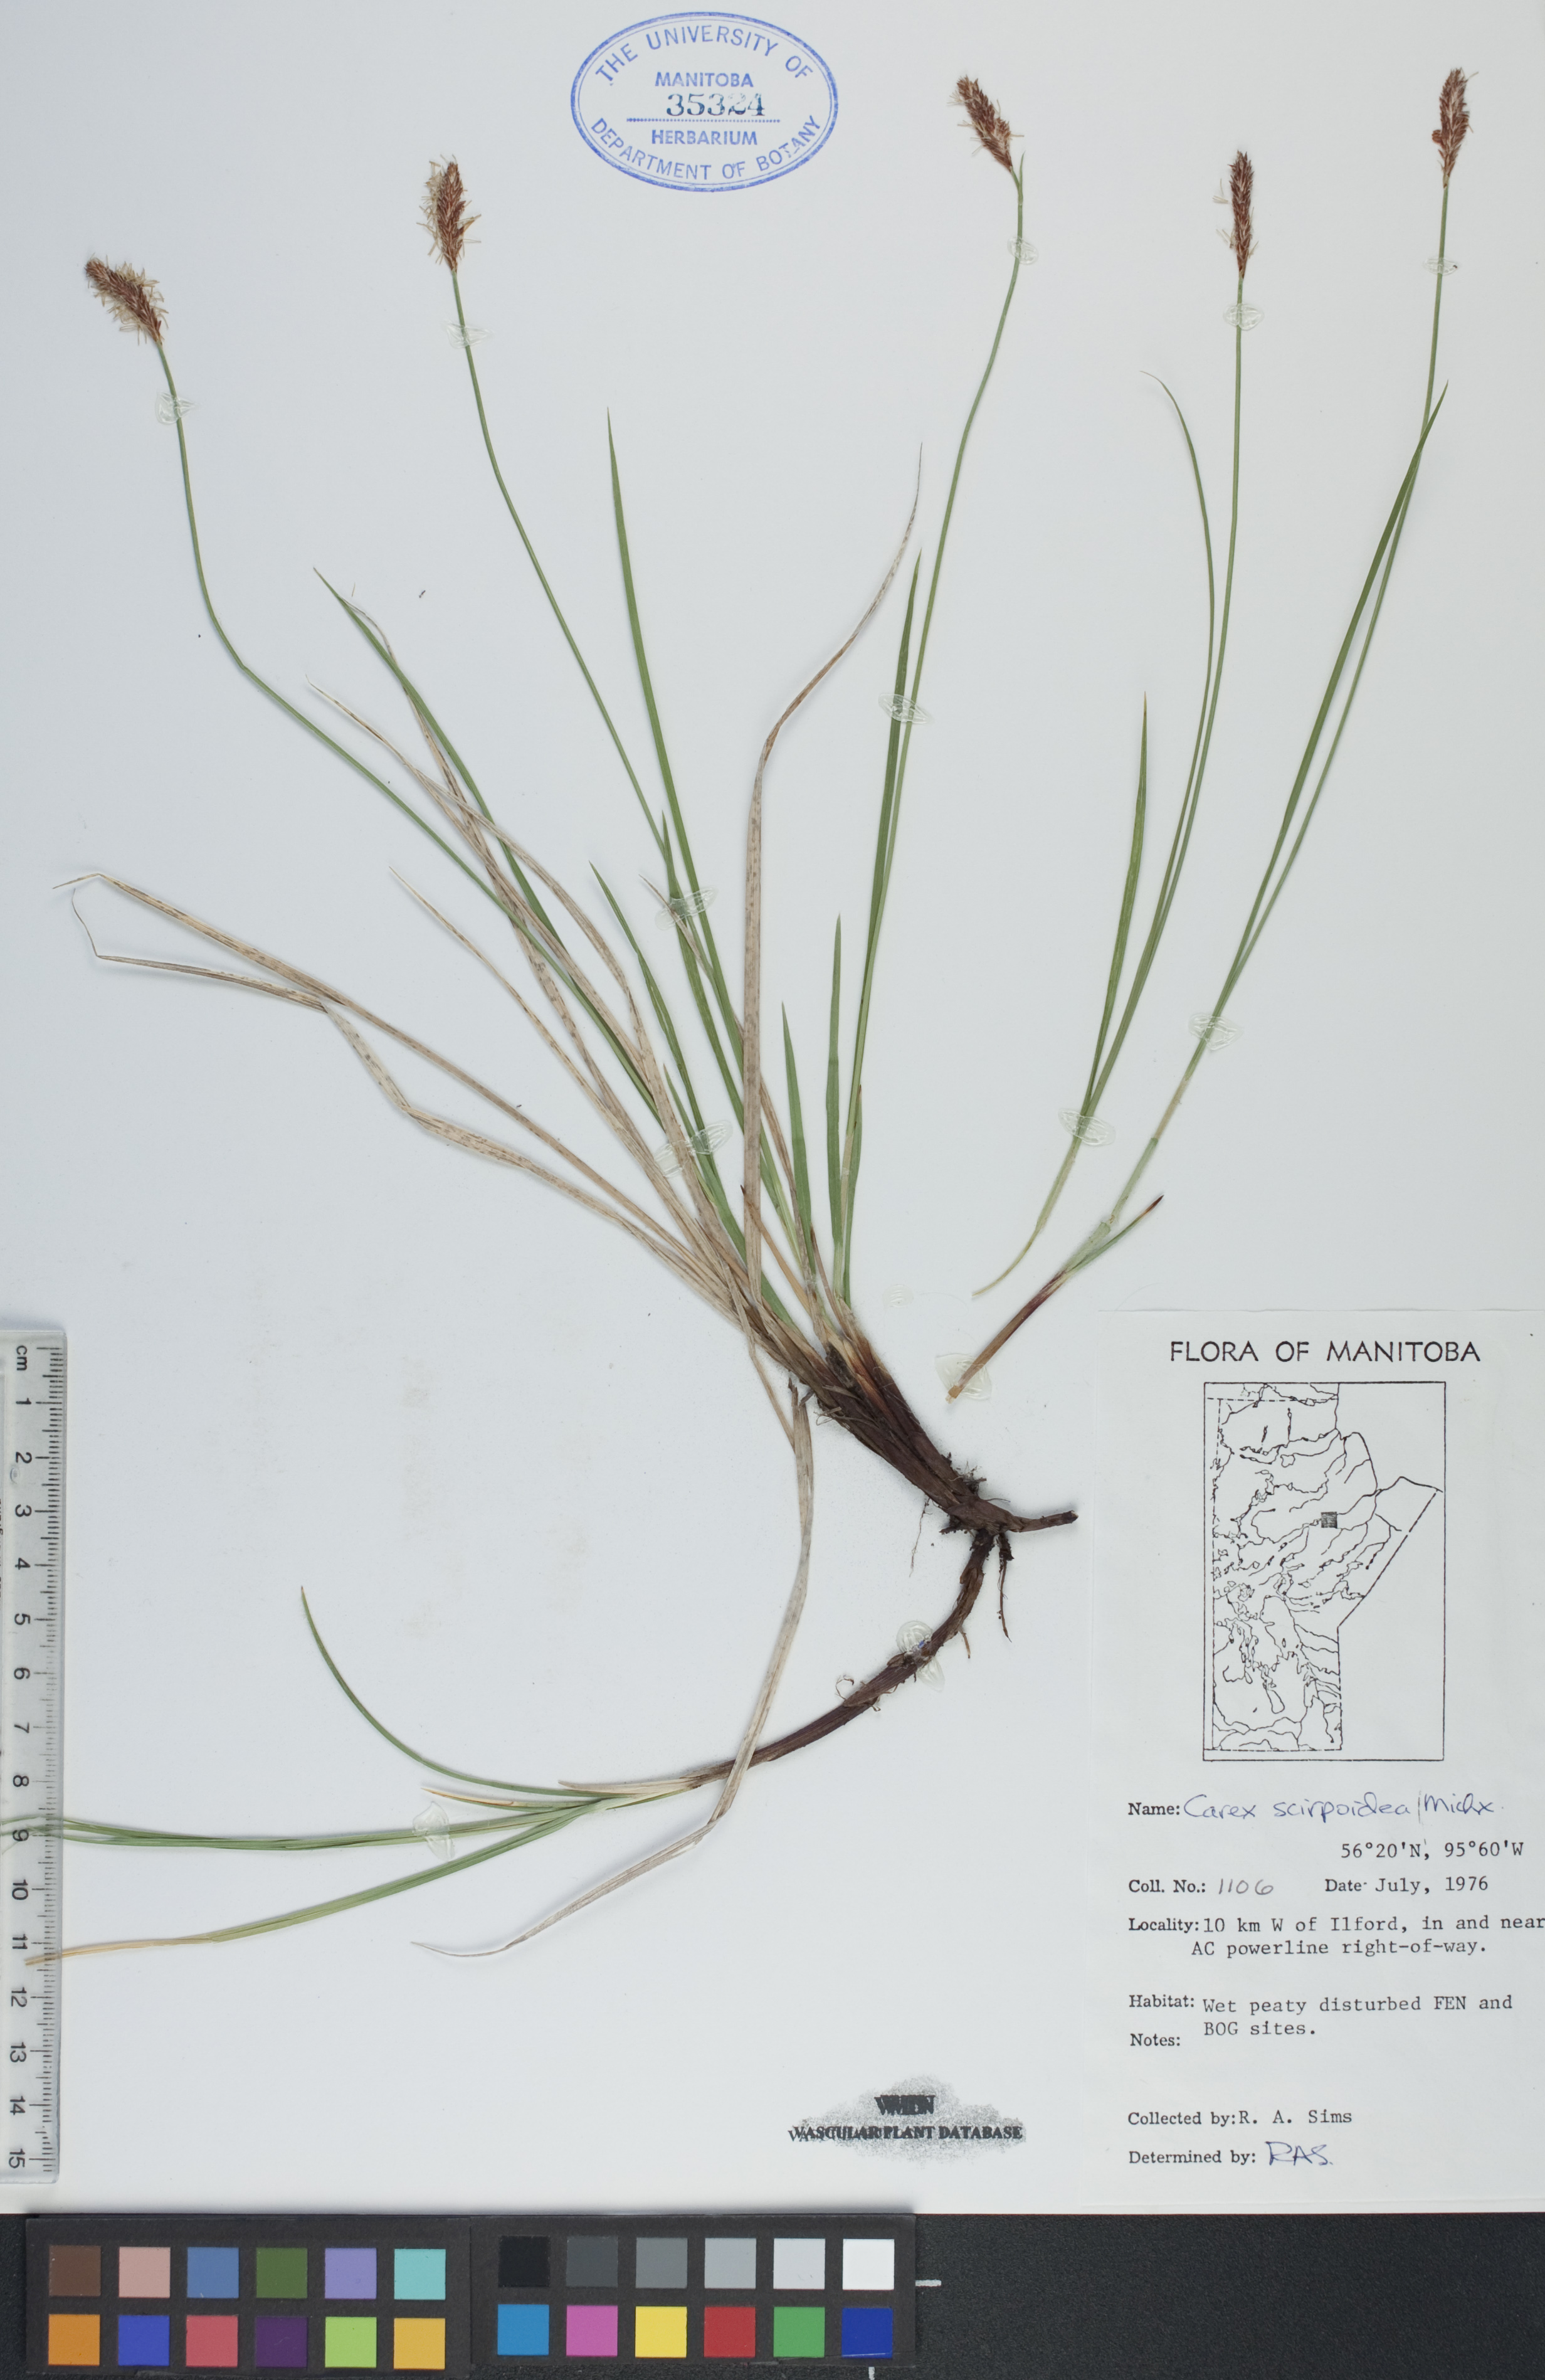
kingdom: Plantae
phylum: Tracheophyta
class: Liliopsida
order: Poales
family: Cyperaceae
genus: Carex
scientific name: Carex scirpoidea
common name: Canada single-spike sedge
